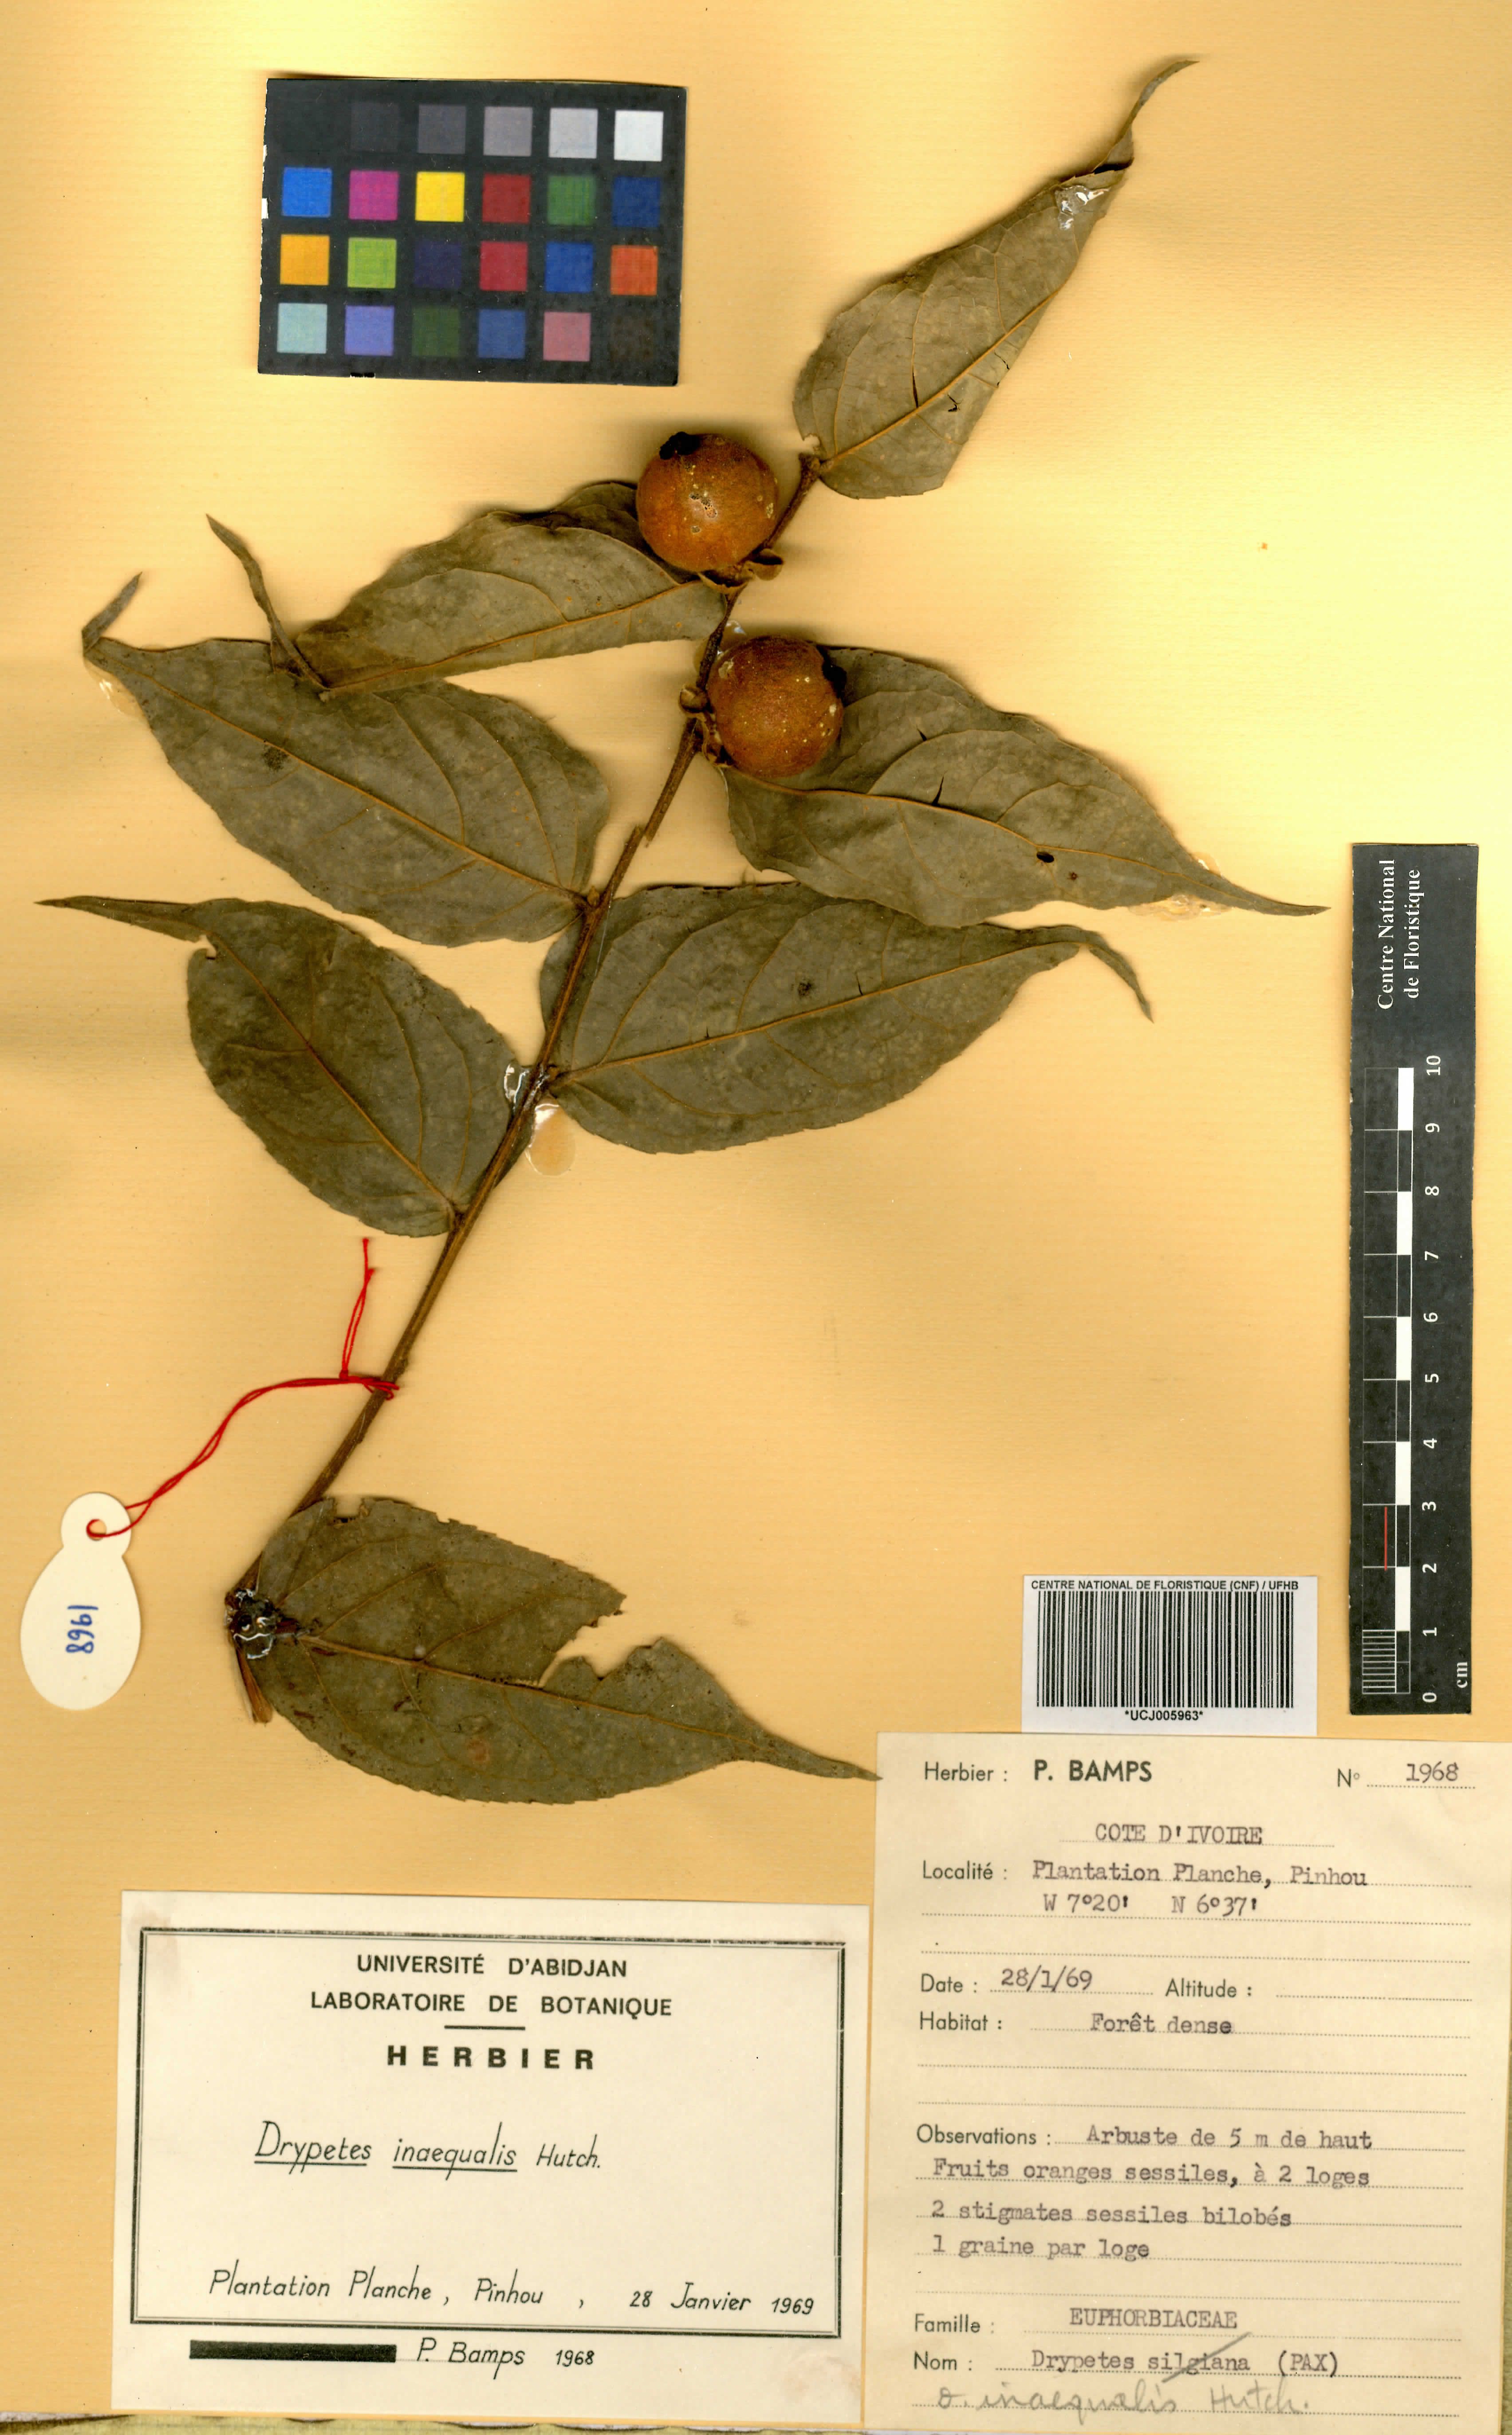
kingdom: Plantae
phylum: Tracheophyta
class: Magnoliopsida
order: Malpighiales
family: Putranjivaceae
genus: Drypetes
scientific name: Drypetes inaequalis
